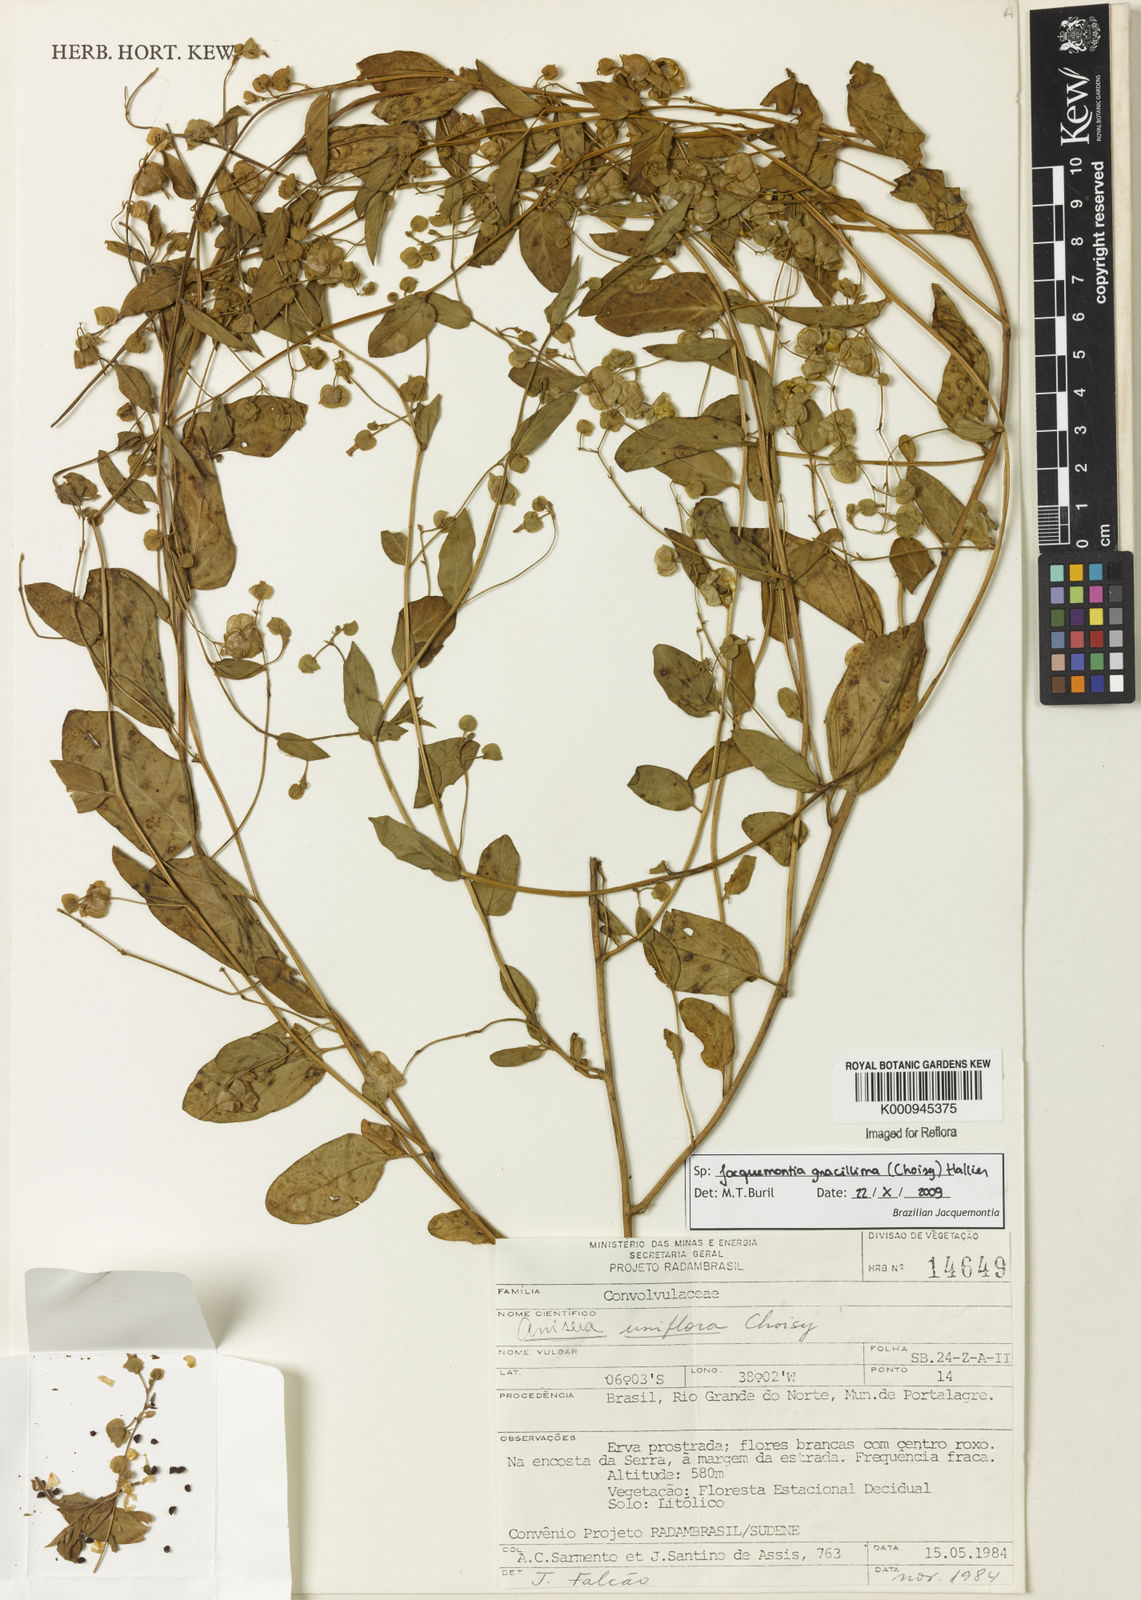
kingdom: Plantae
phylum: Tracheophyta
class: Magnoliopsida
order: Solanales
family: Convolvulaceae
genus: Jacquemontia
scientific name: Jacquemontia gracillima
